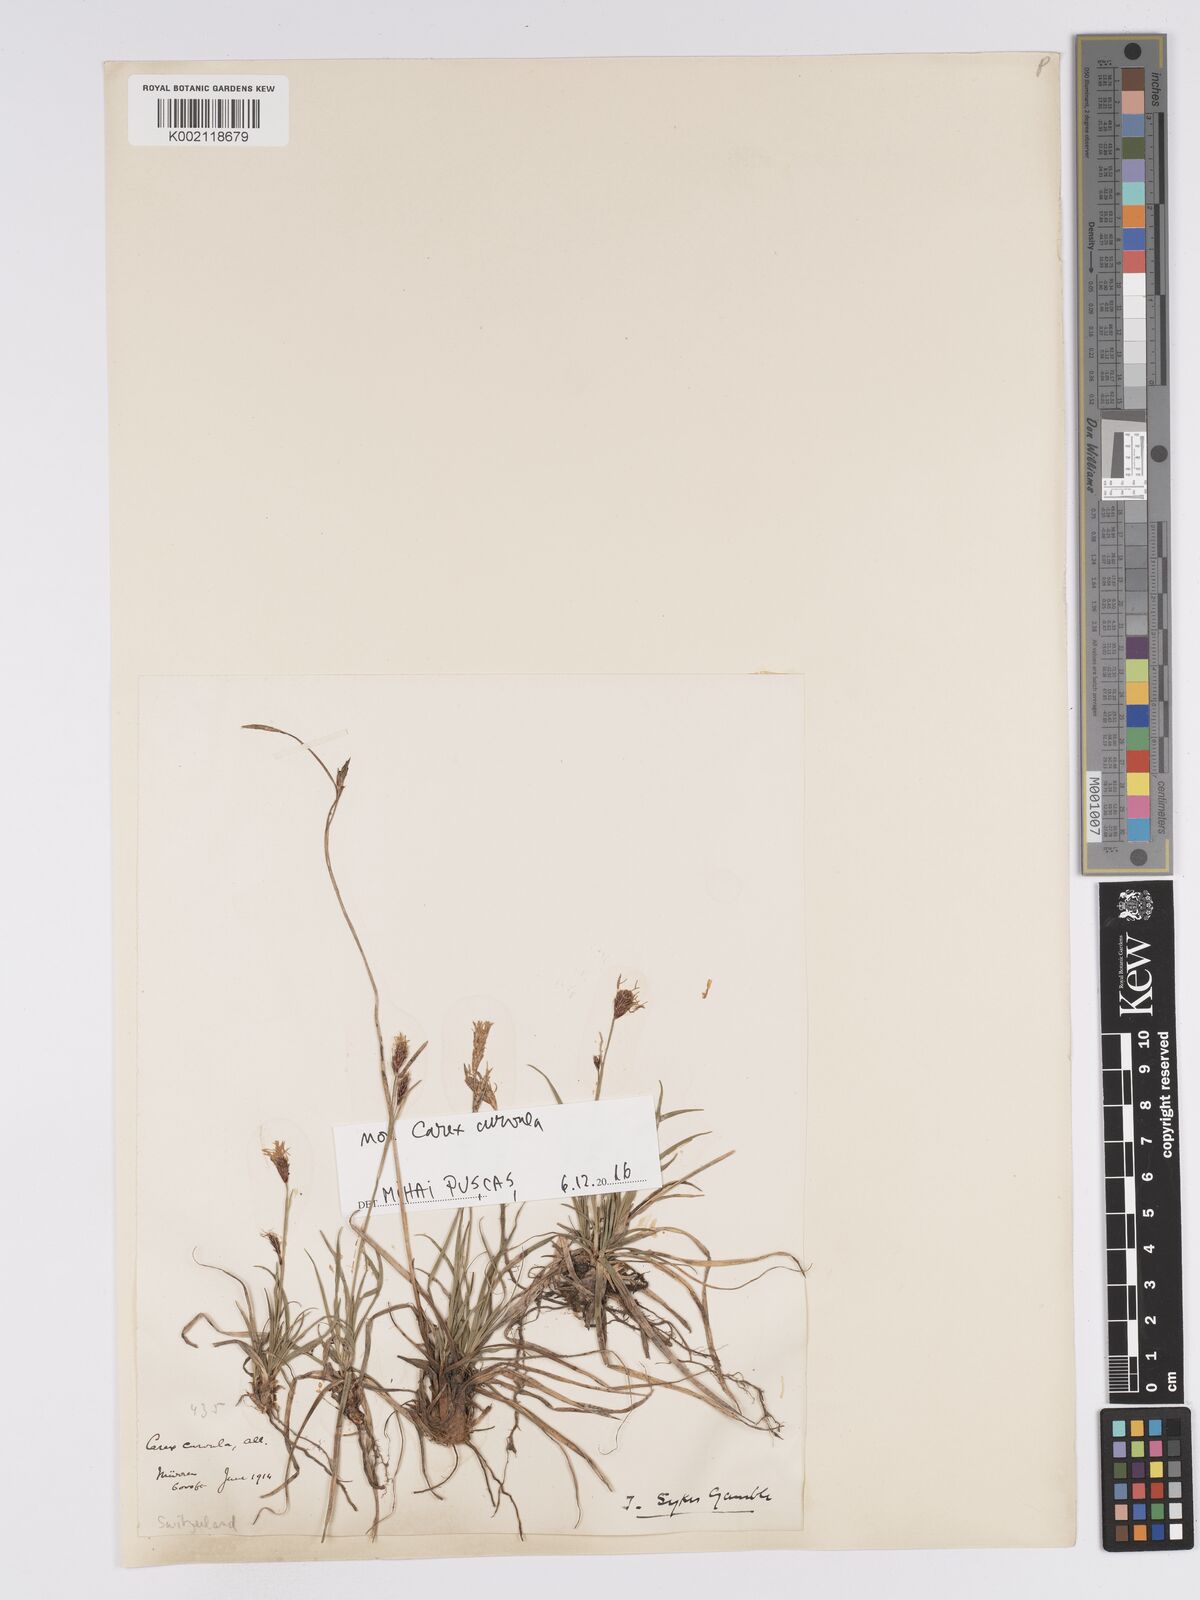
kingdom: Plantae
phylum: Tracheophyta
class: Liliopsida
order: Poales
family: Cyperaceae
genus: Carex
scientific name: Carex curvula
